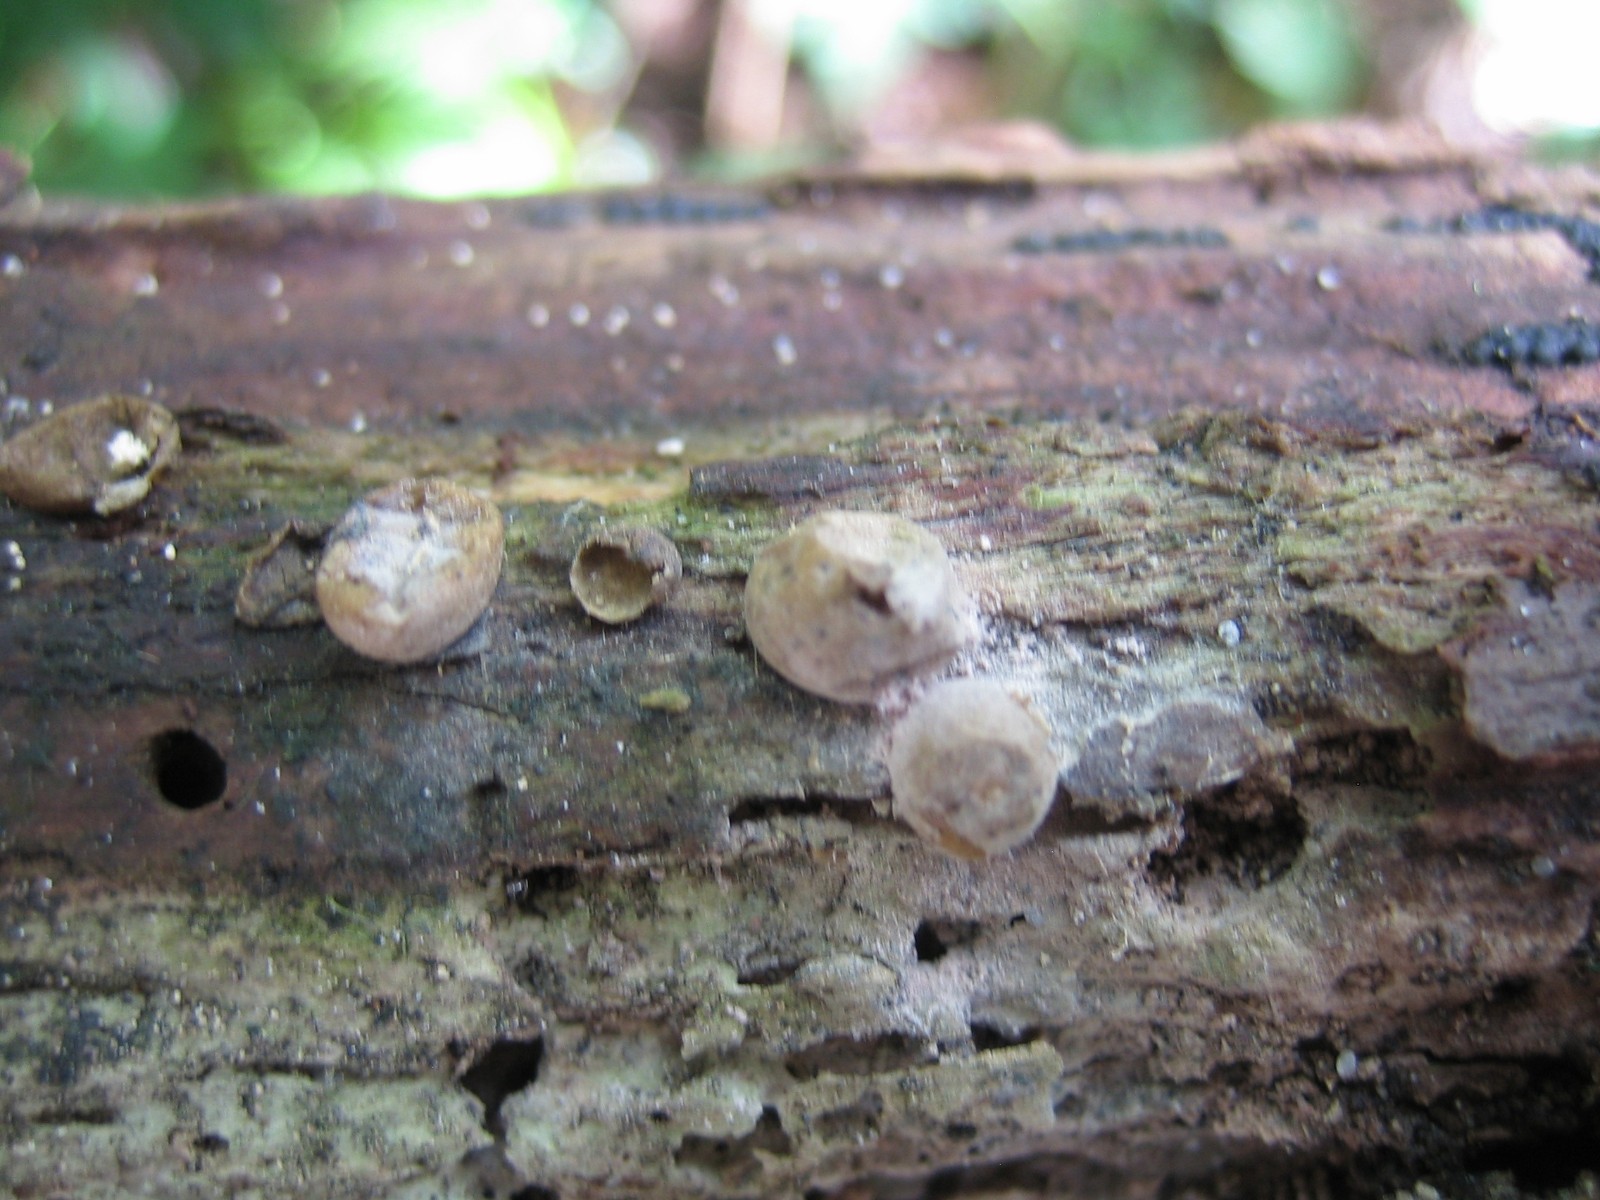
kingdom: Protozoa
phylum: Mycetozoa
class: Myxomycetes
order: Cribrariales
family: Tubiferaceae
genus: Lycogala
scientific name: Lycogala epidendrum
